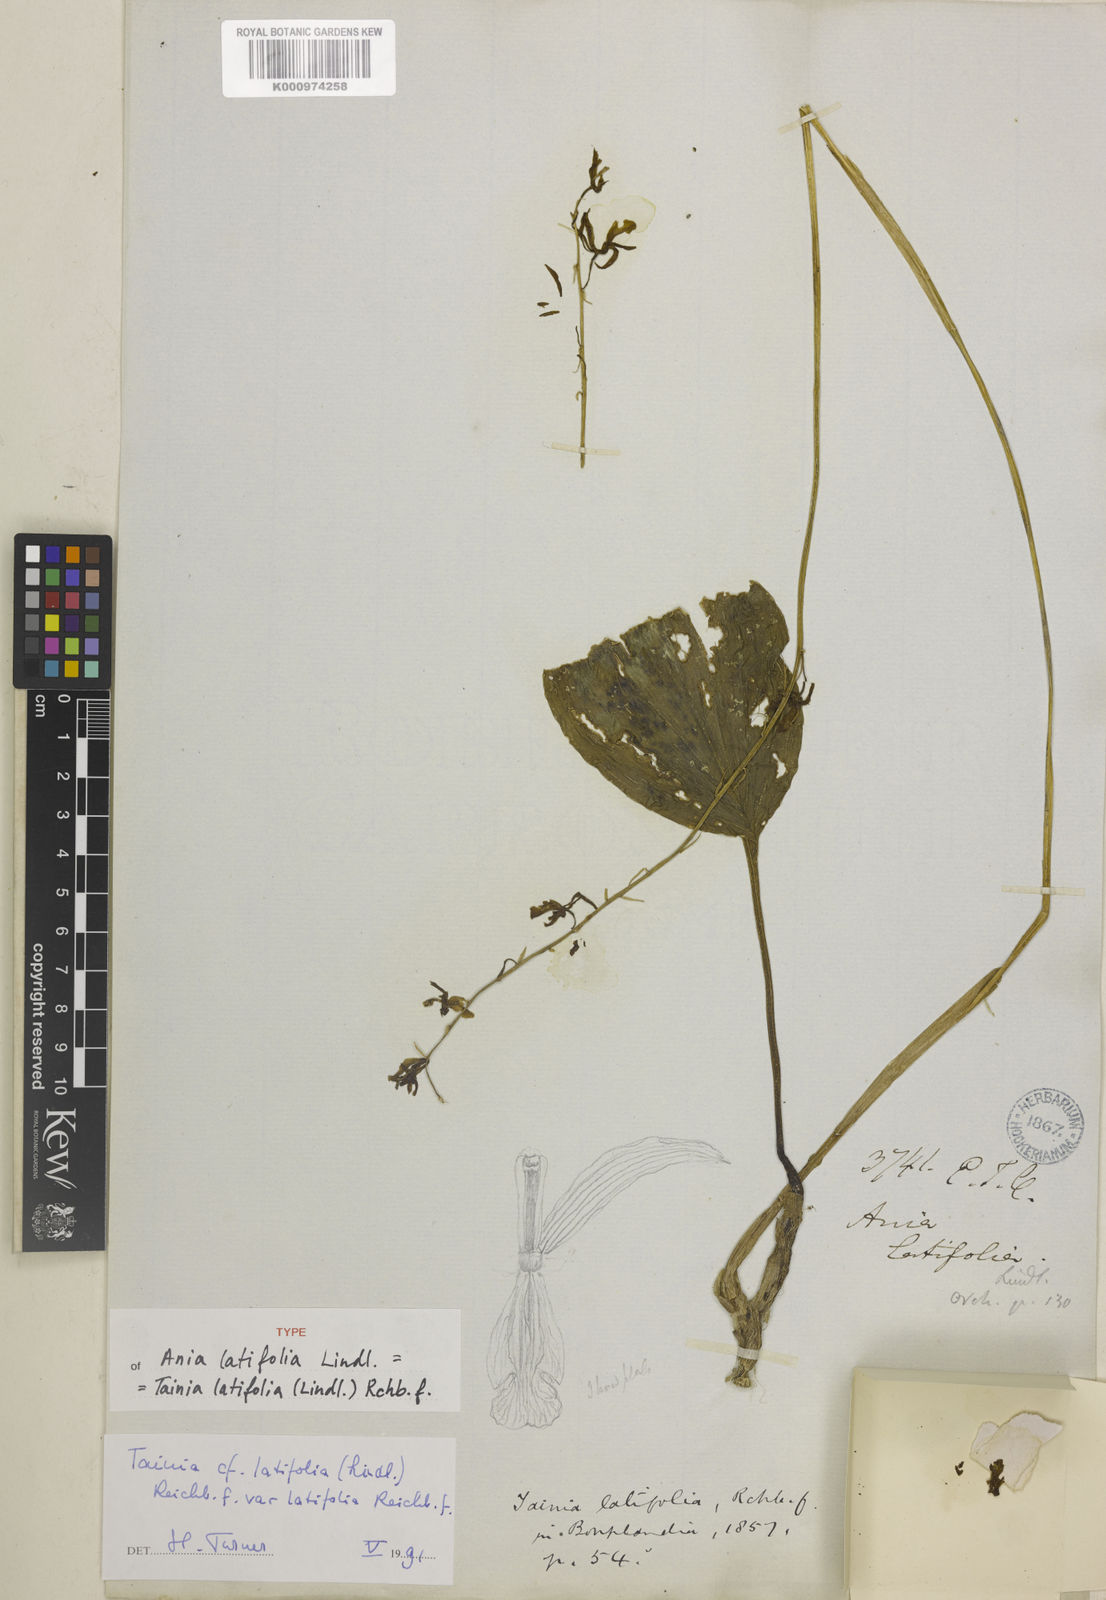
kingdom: Plantae
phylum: Tracheophyta
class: Liliopsida
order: Asparagales
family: Orchidaceae
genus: Tainia
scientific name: Tainia latifolia
